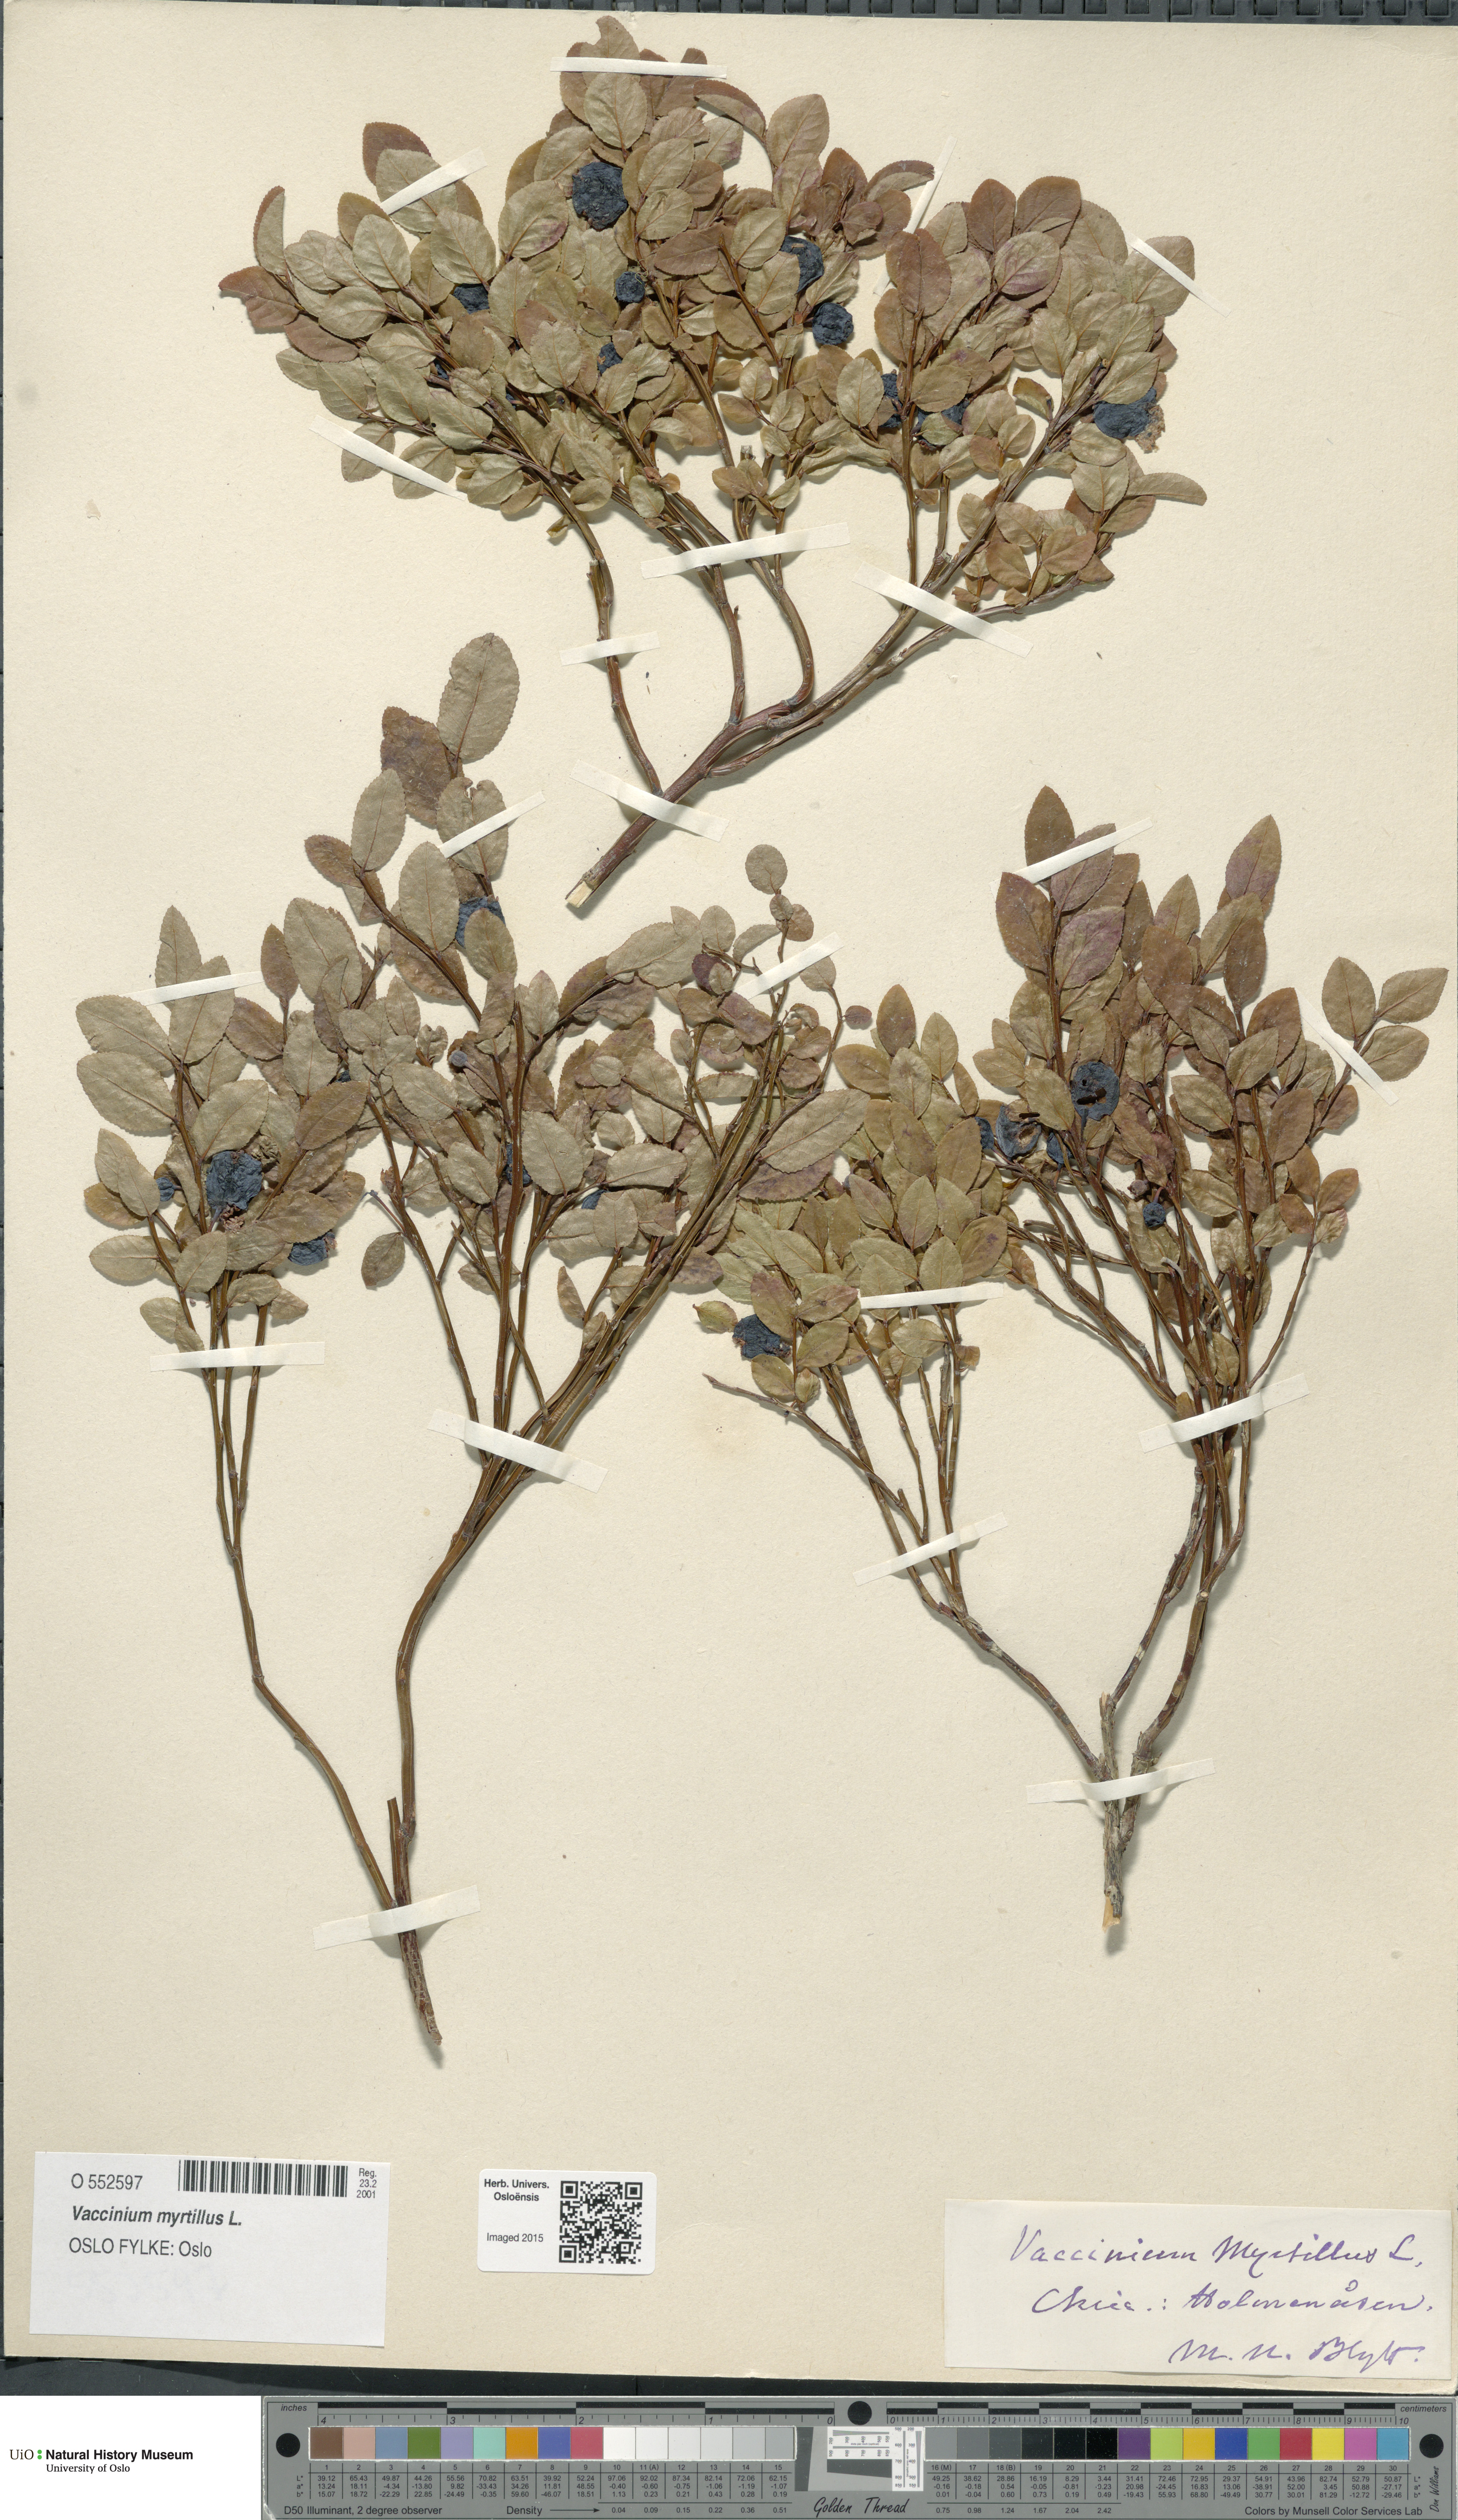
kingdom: Plantae
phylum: Tracheophyta
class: Magnoliopsida
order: Ericales
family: Ericaceae
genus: Vaccinium
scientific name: Vaccinium myrtillus
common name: Bilberry
